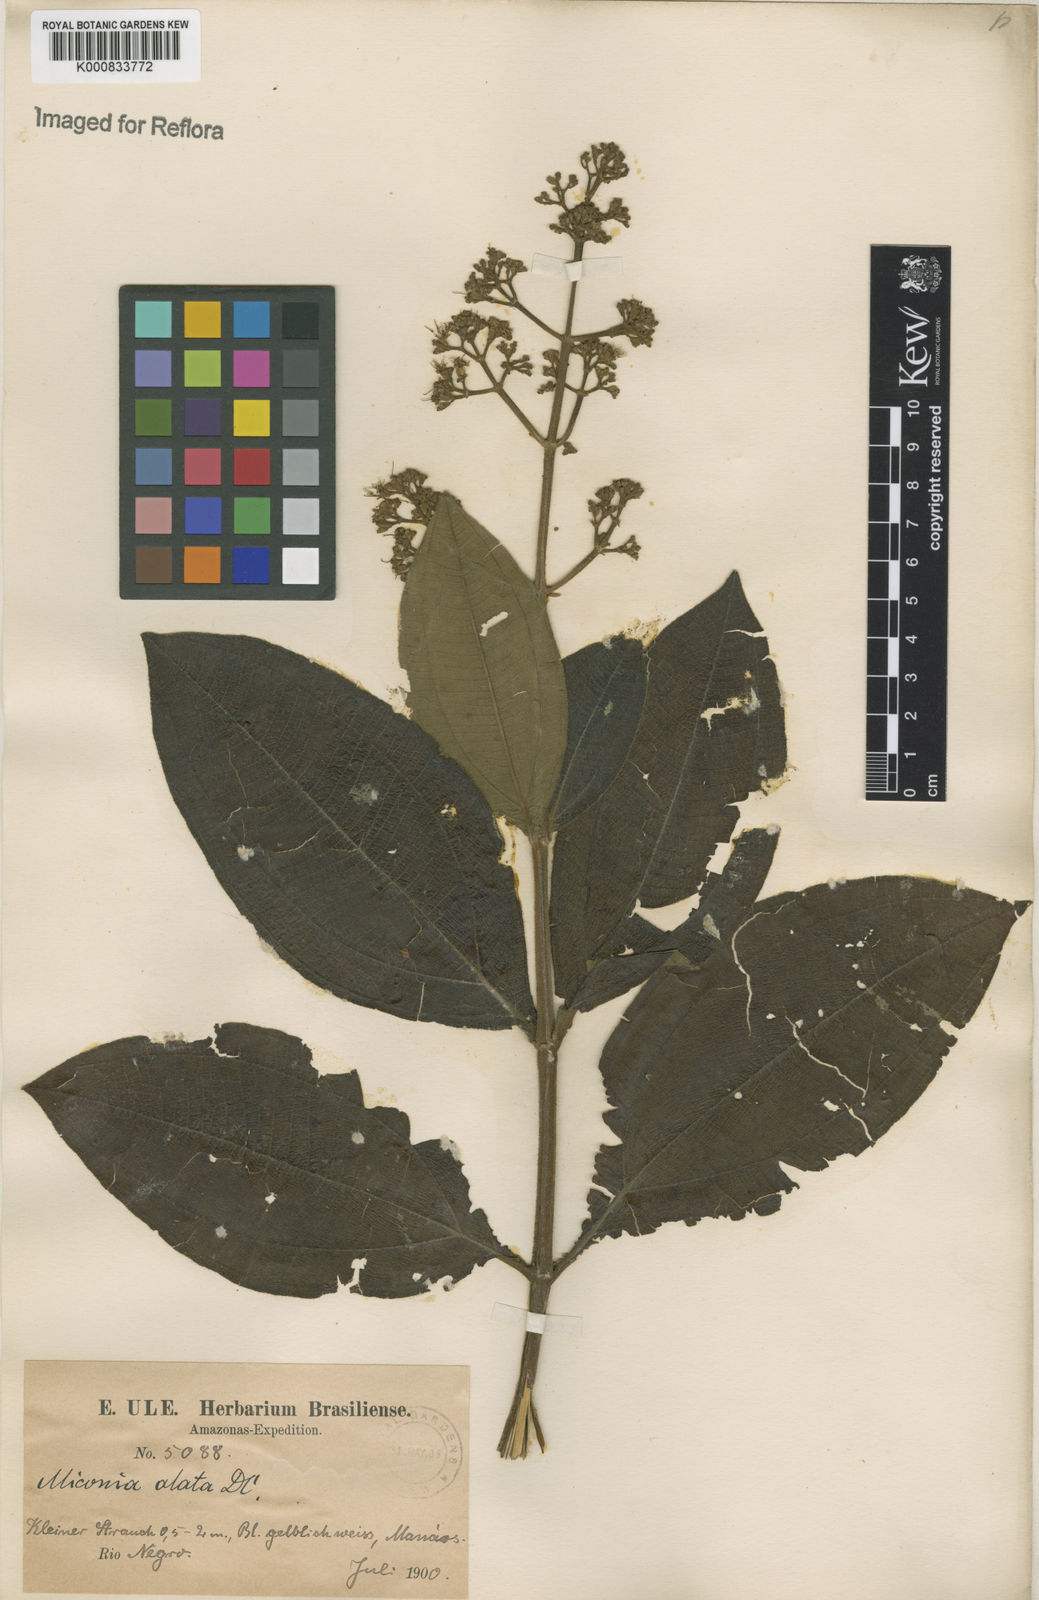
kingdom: Plantae
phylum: Tracheophyta
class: Magnoliopsida
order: Myrtales
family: Melastomataceae
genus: Miconia
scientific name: Miconia alata
